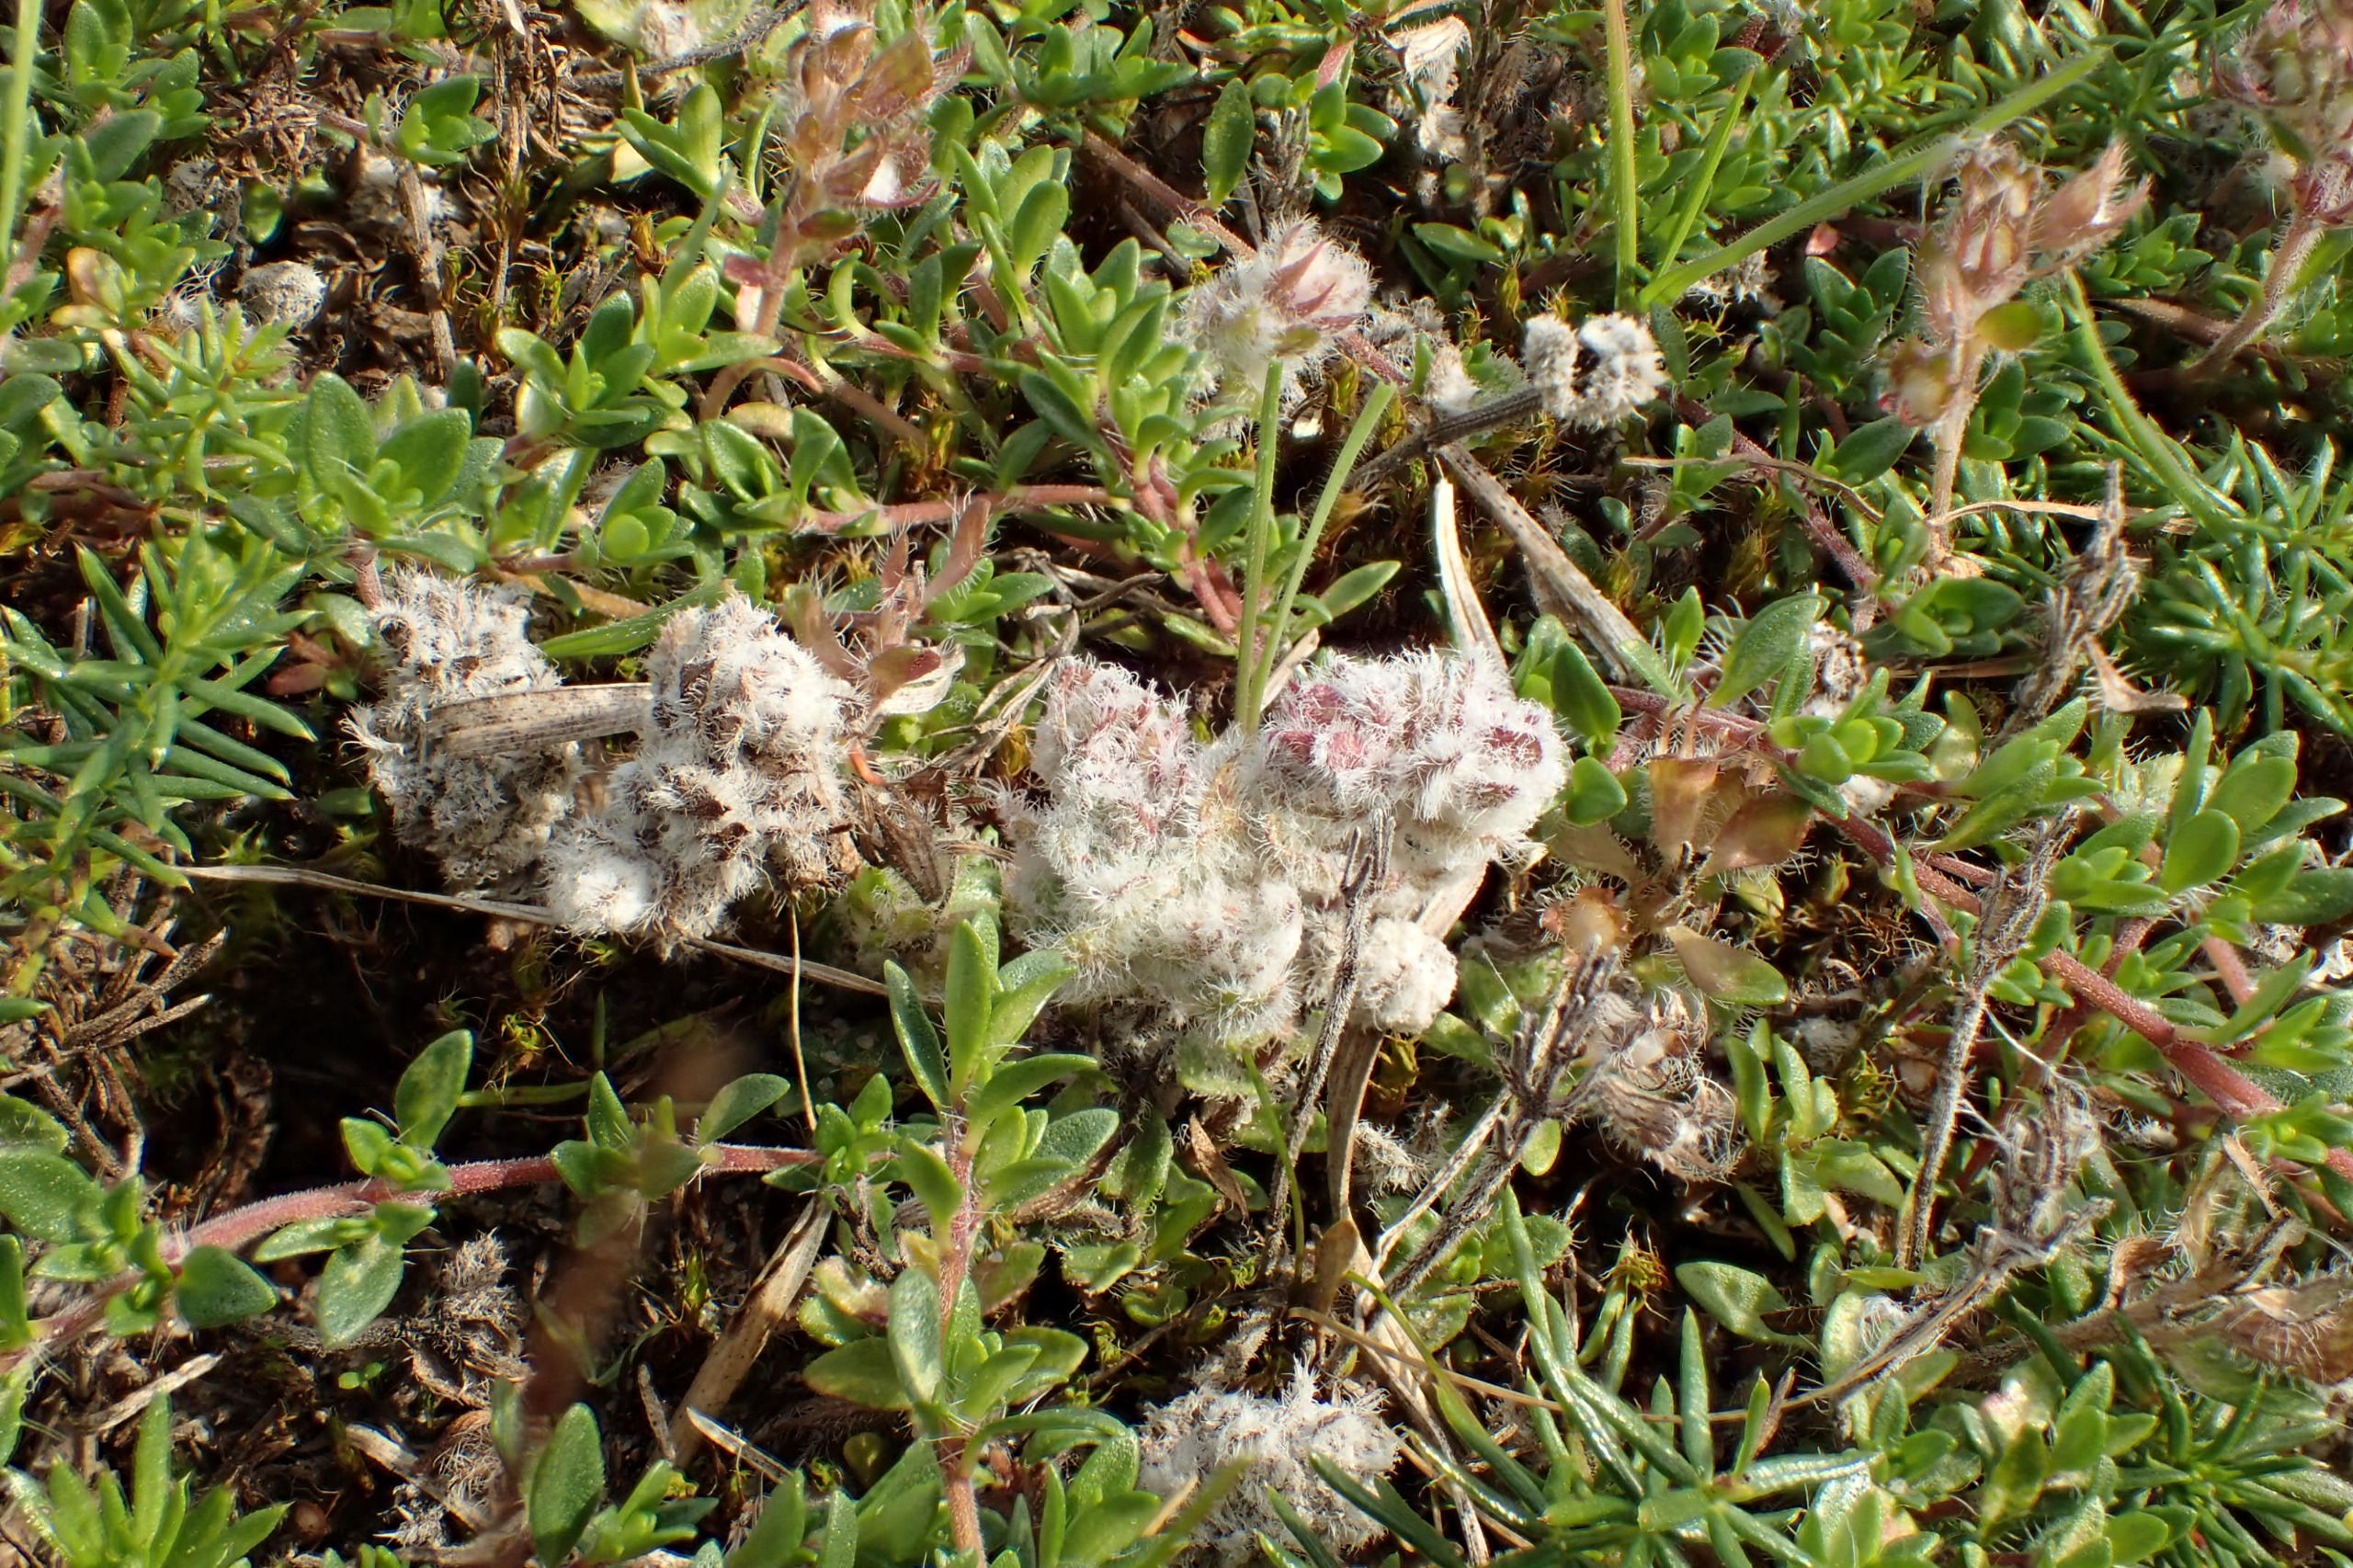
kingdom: Animalia
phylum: Arthropoda
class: Arachnida
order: Trombidiformes
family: Eriophyidae
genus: Aceria
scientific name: Aceria thomasi
